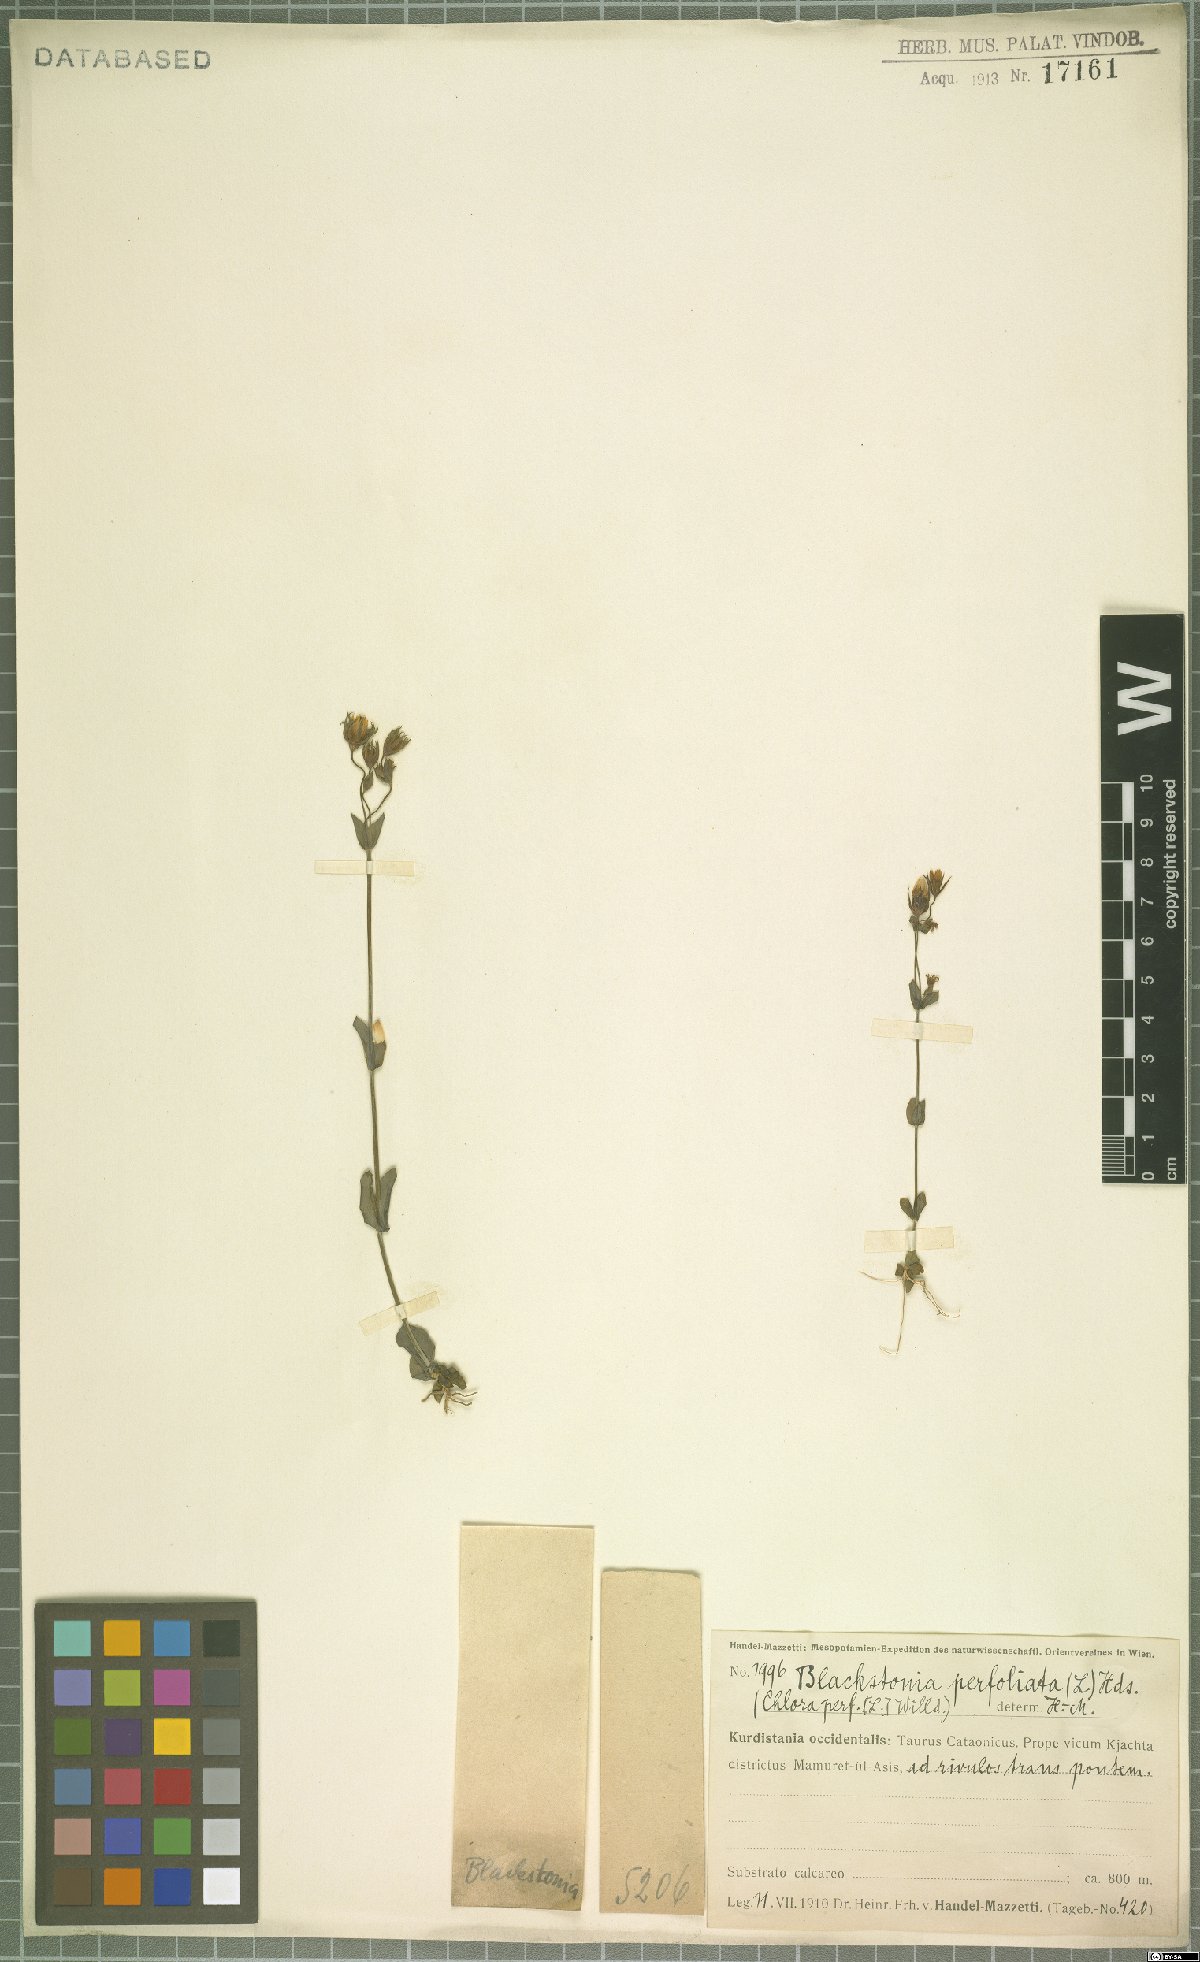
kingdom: Plantae
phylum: Tracheophyta
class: Magnoliopsida
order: Gentianales
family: Gentianaceae
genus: Blackstonia
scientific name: Blackstonia perfoliata
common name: Yellow-wort
